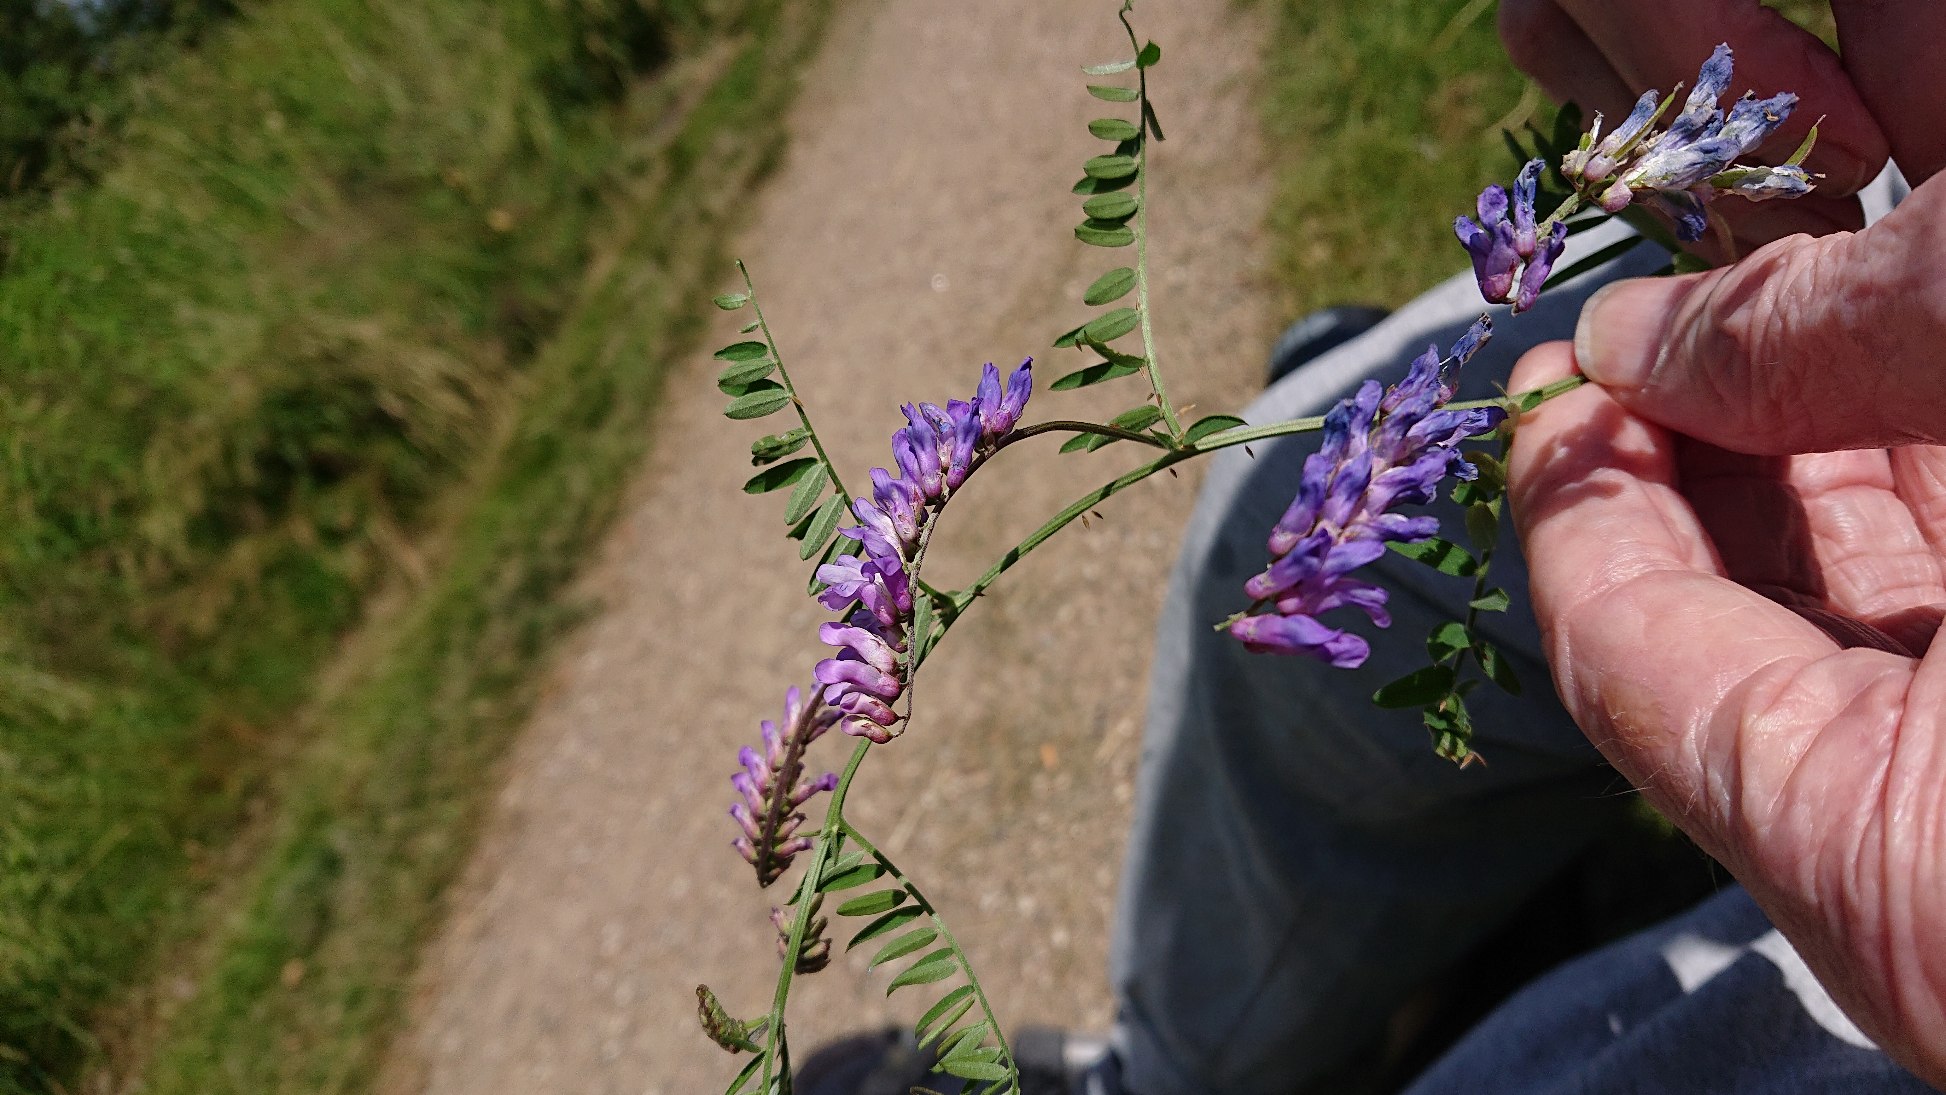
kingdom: Plantae
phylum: Tracheophyta
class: Magnoliopsida
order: Fabales
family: Fabaceae
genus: Vicia
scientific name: Vicia cracca
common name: Muse-vikke
